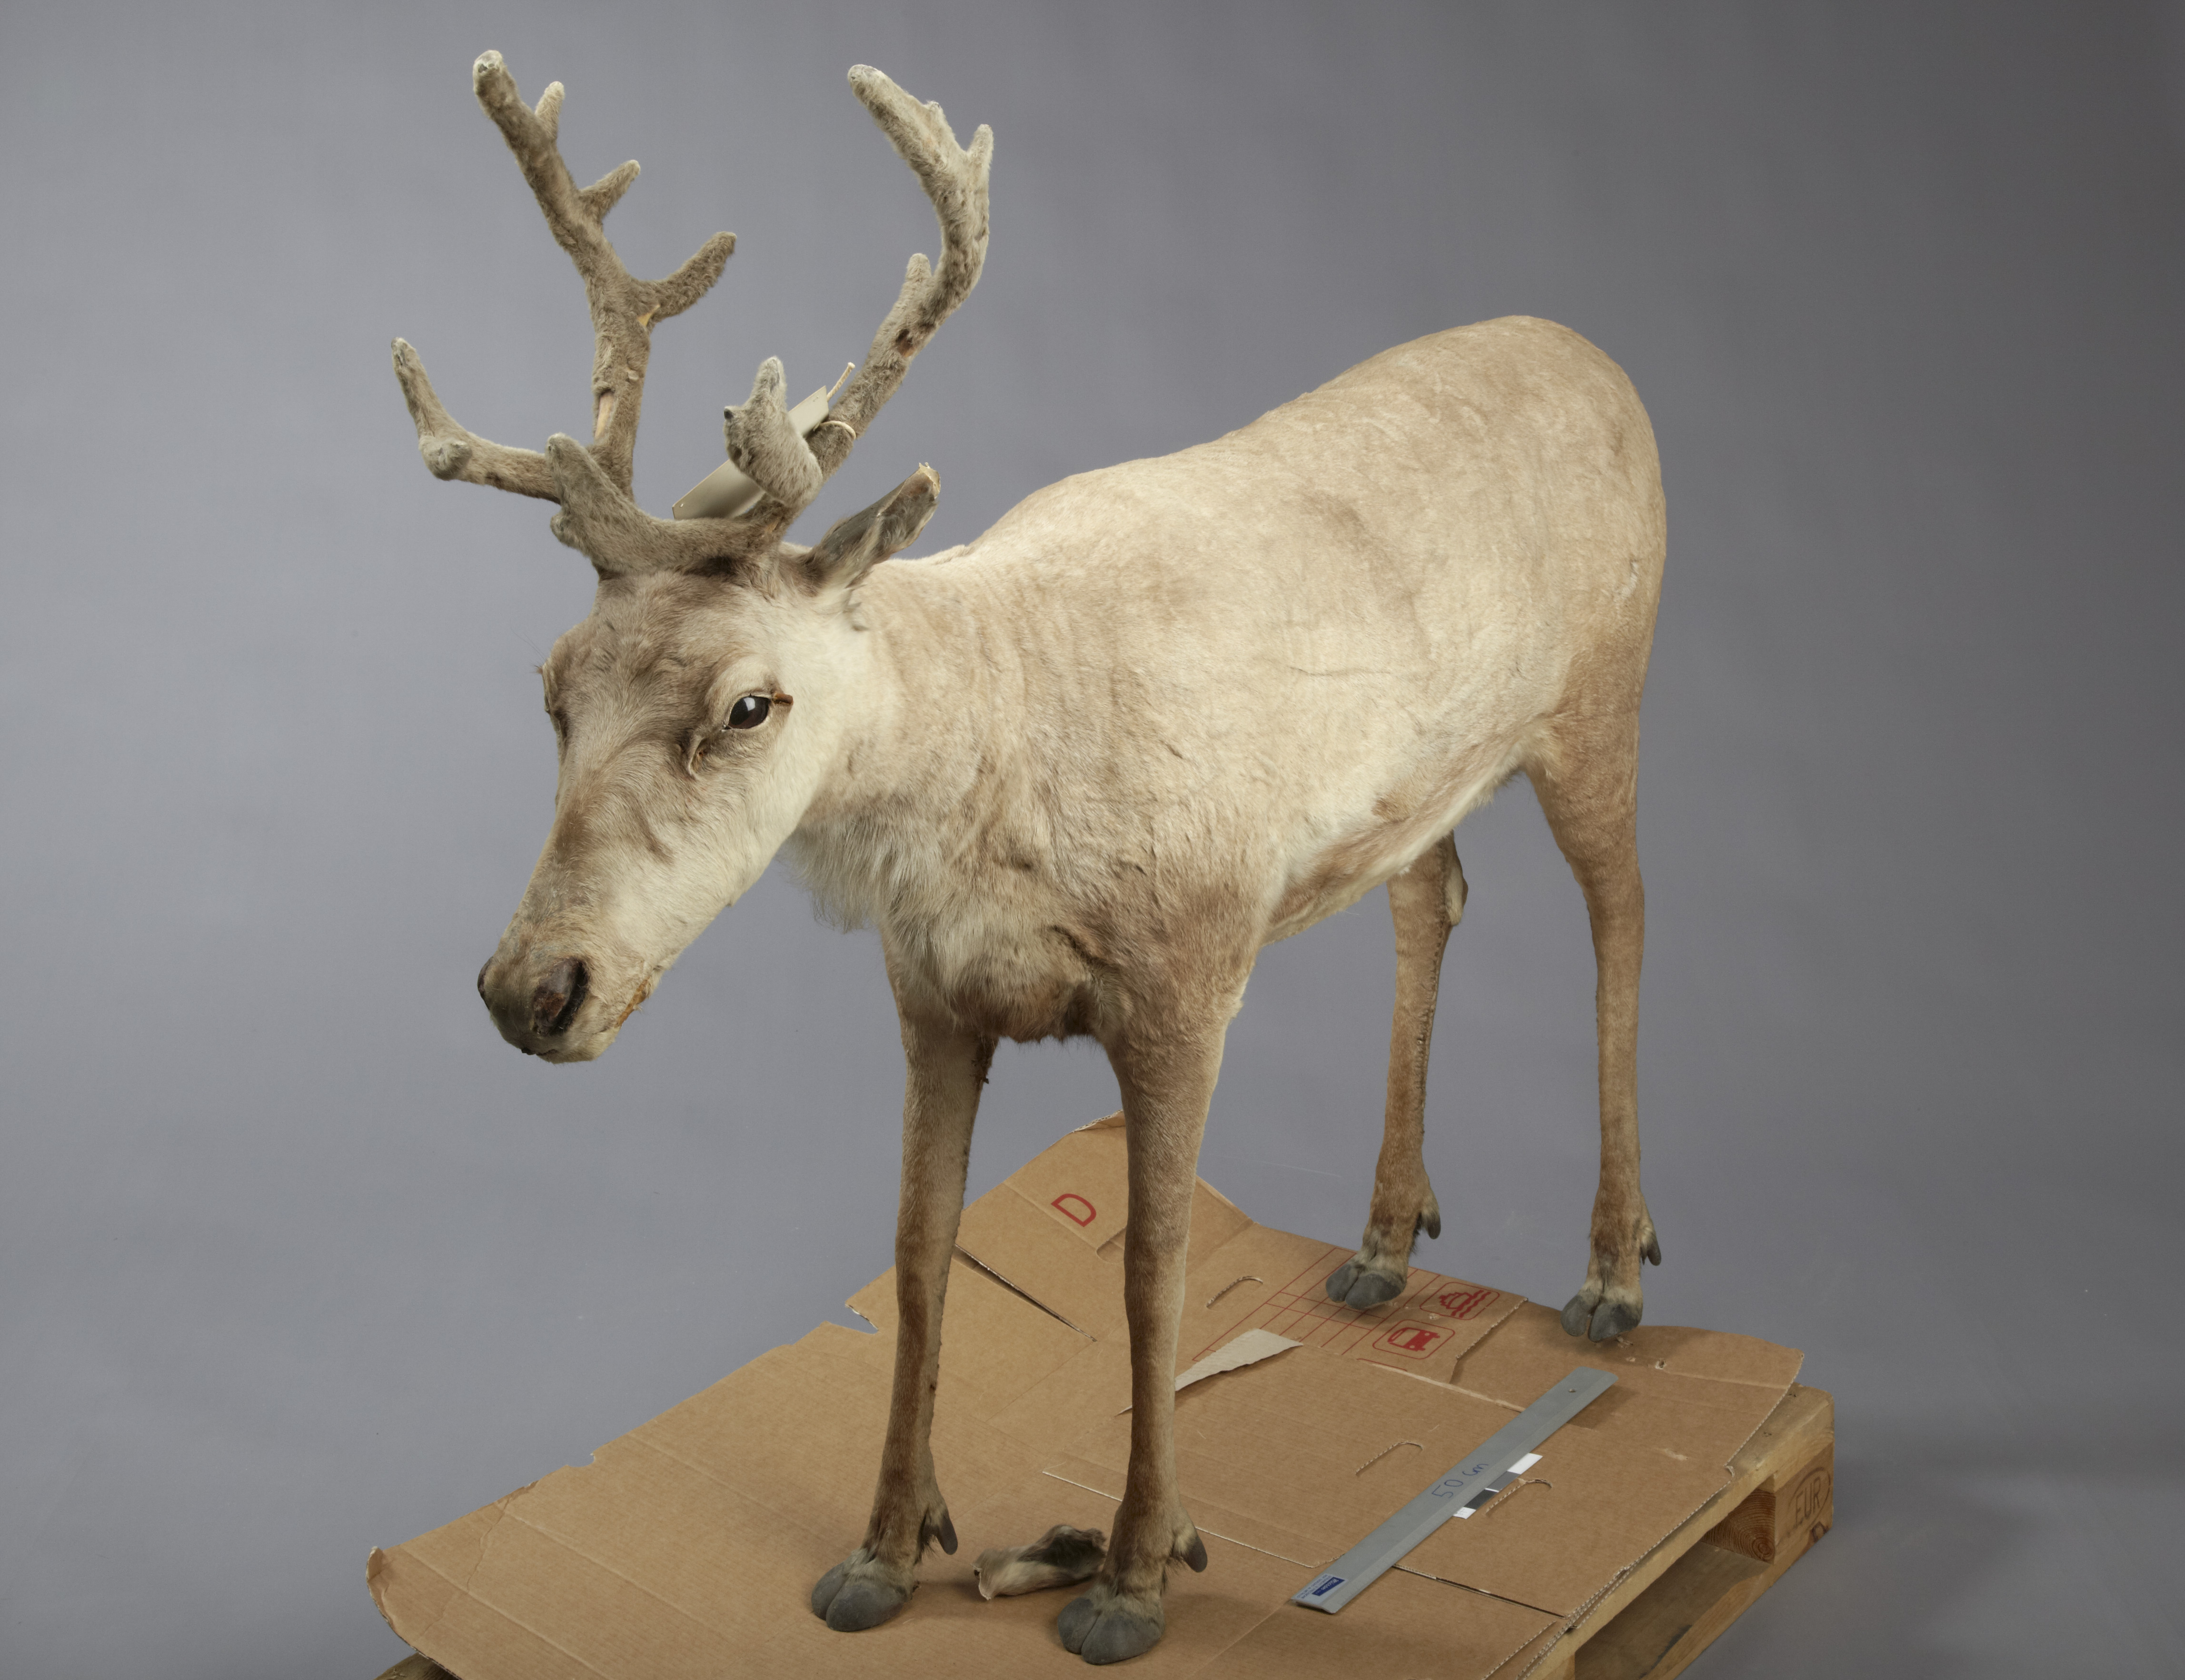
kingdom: Animalia
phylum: Chordata
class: Mammalia
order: Artiodactyla
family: Cervidae
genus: Rangifer
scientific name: Rangifer tarandus
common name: Reindeer
